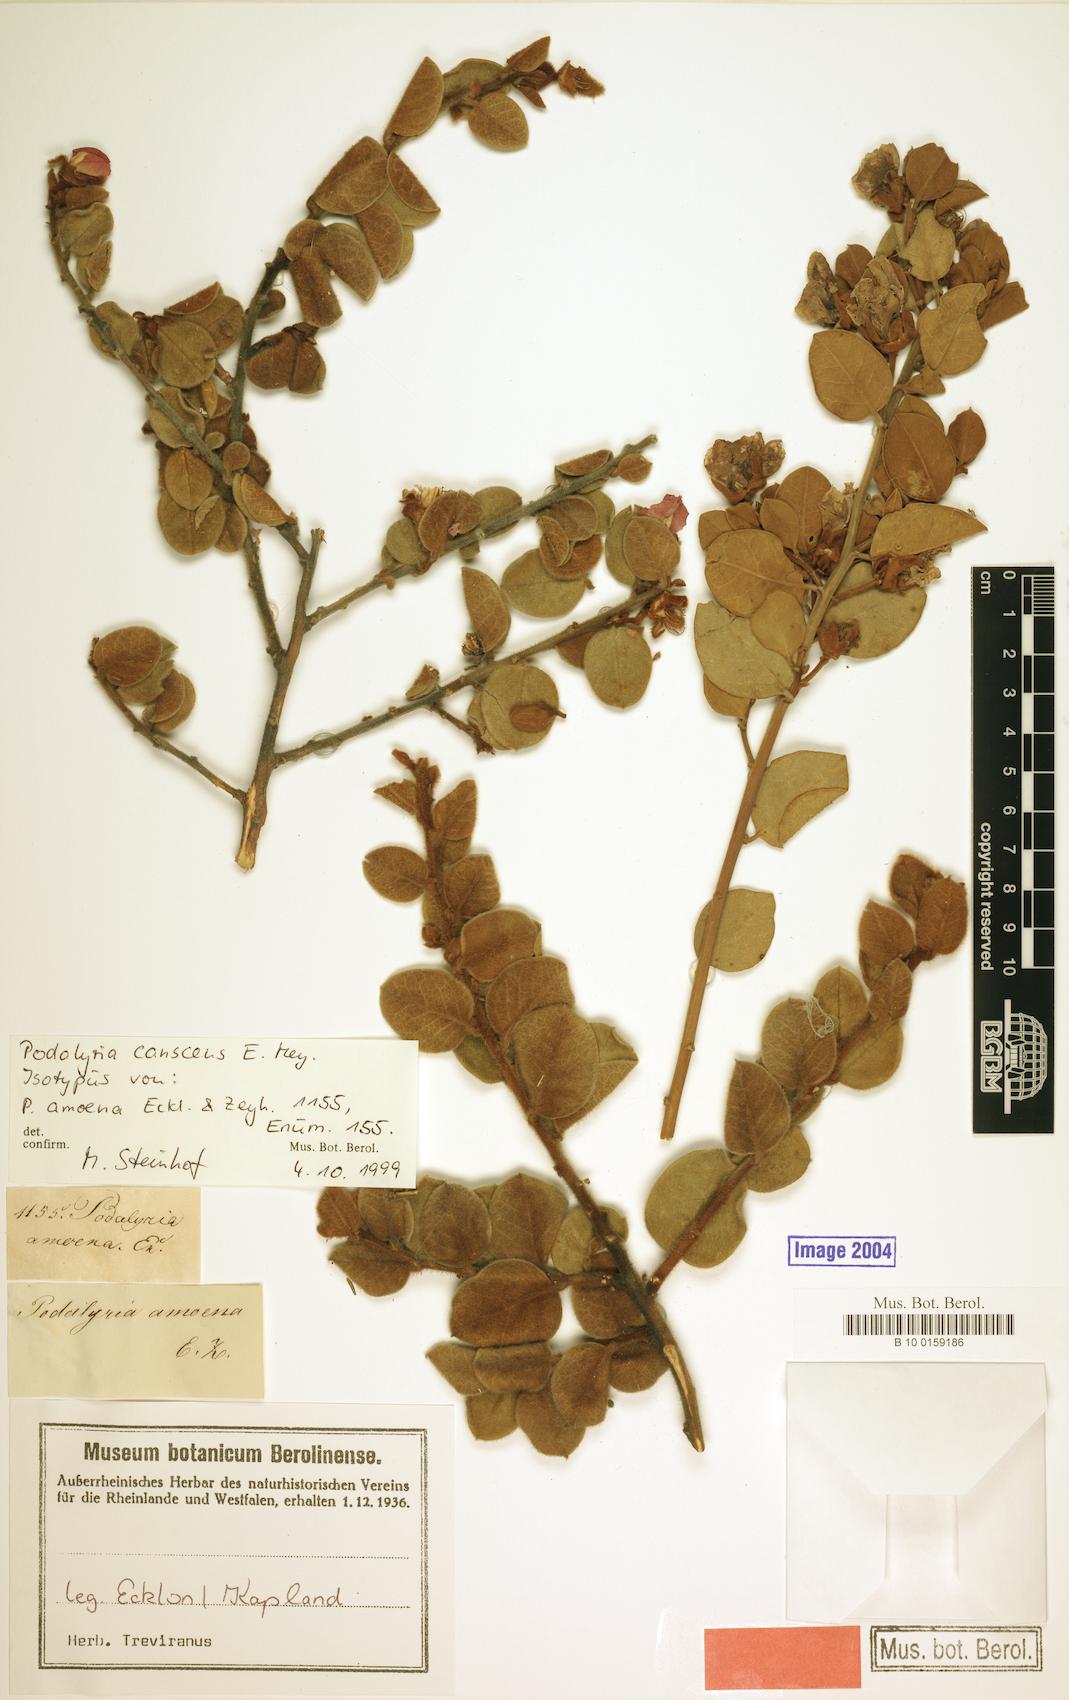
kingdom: Plantae
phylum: Tracheophyta
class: Magnoliopsida
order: Fabales
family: Fabaceae
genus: Podalyria
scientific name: Podalyria amoena
